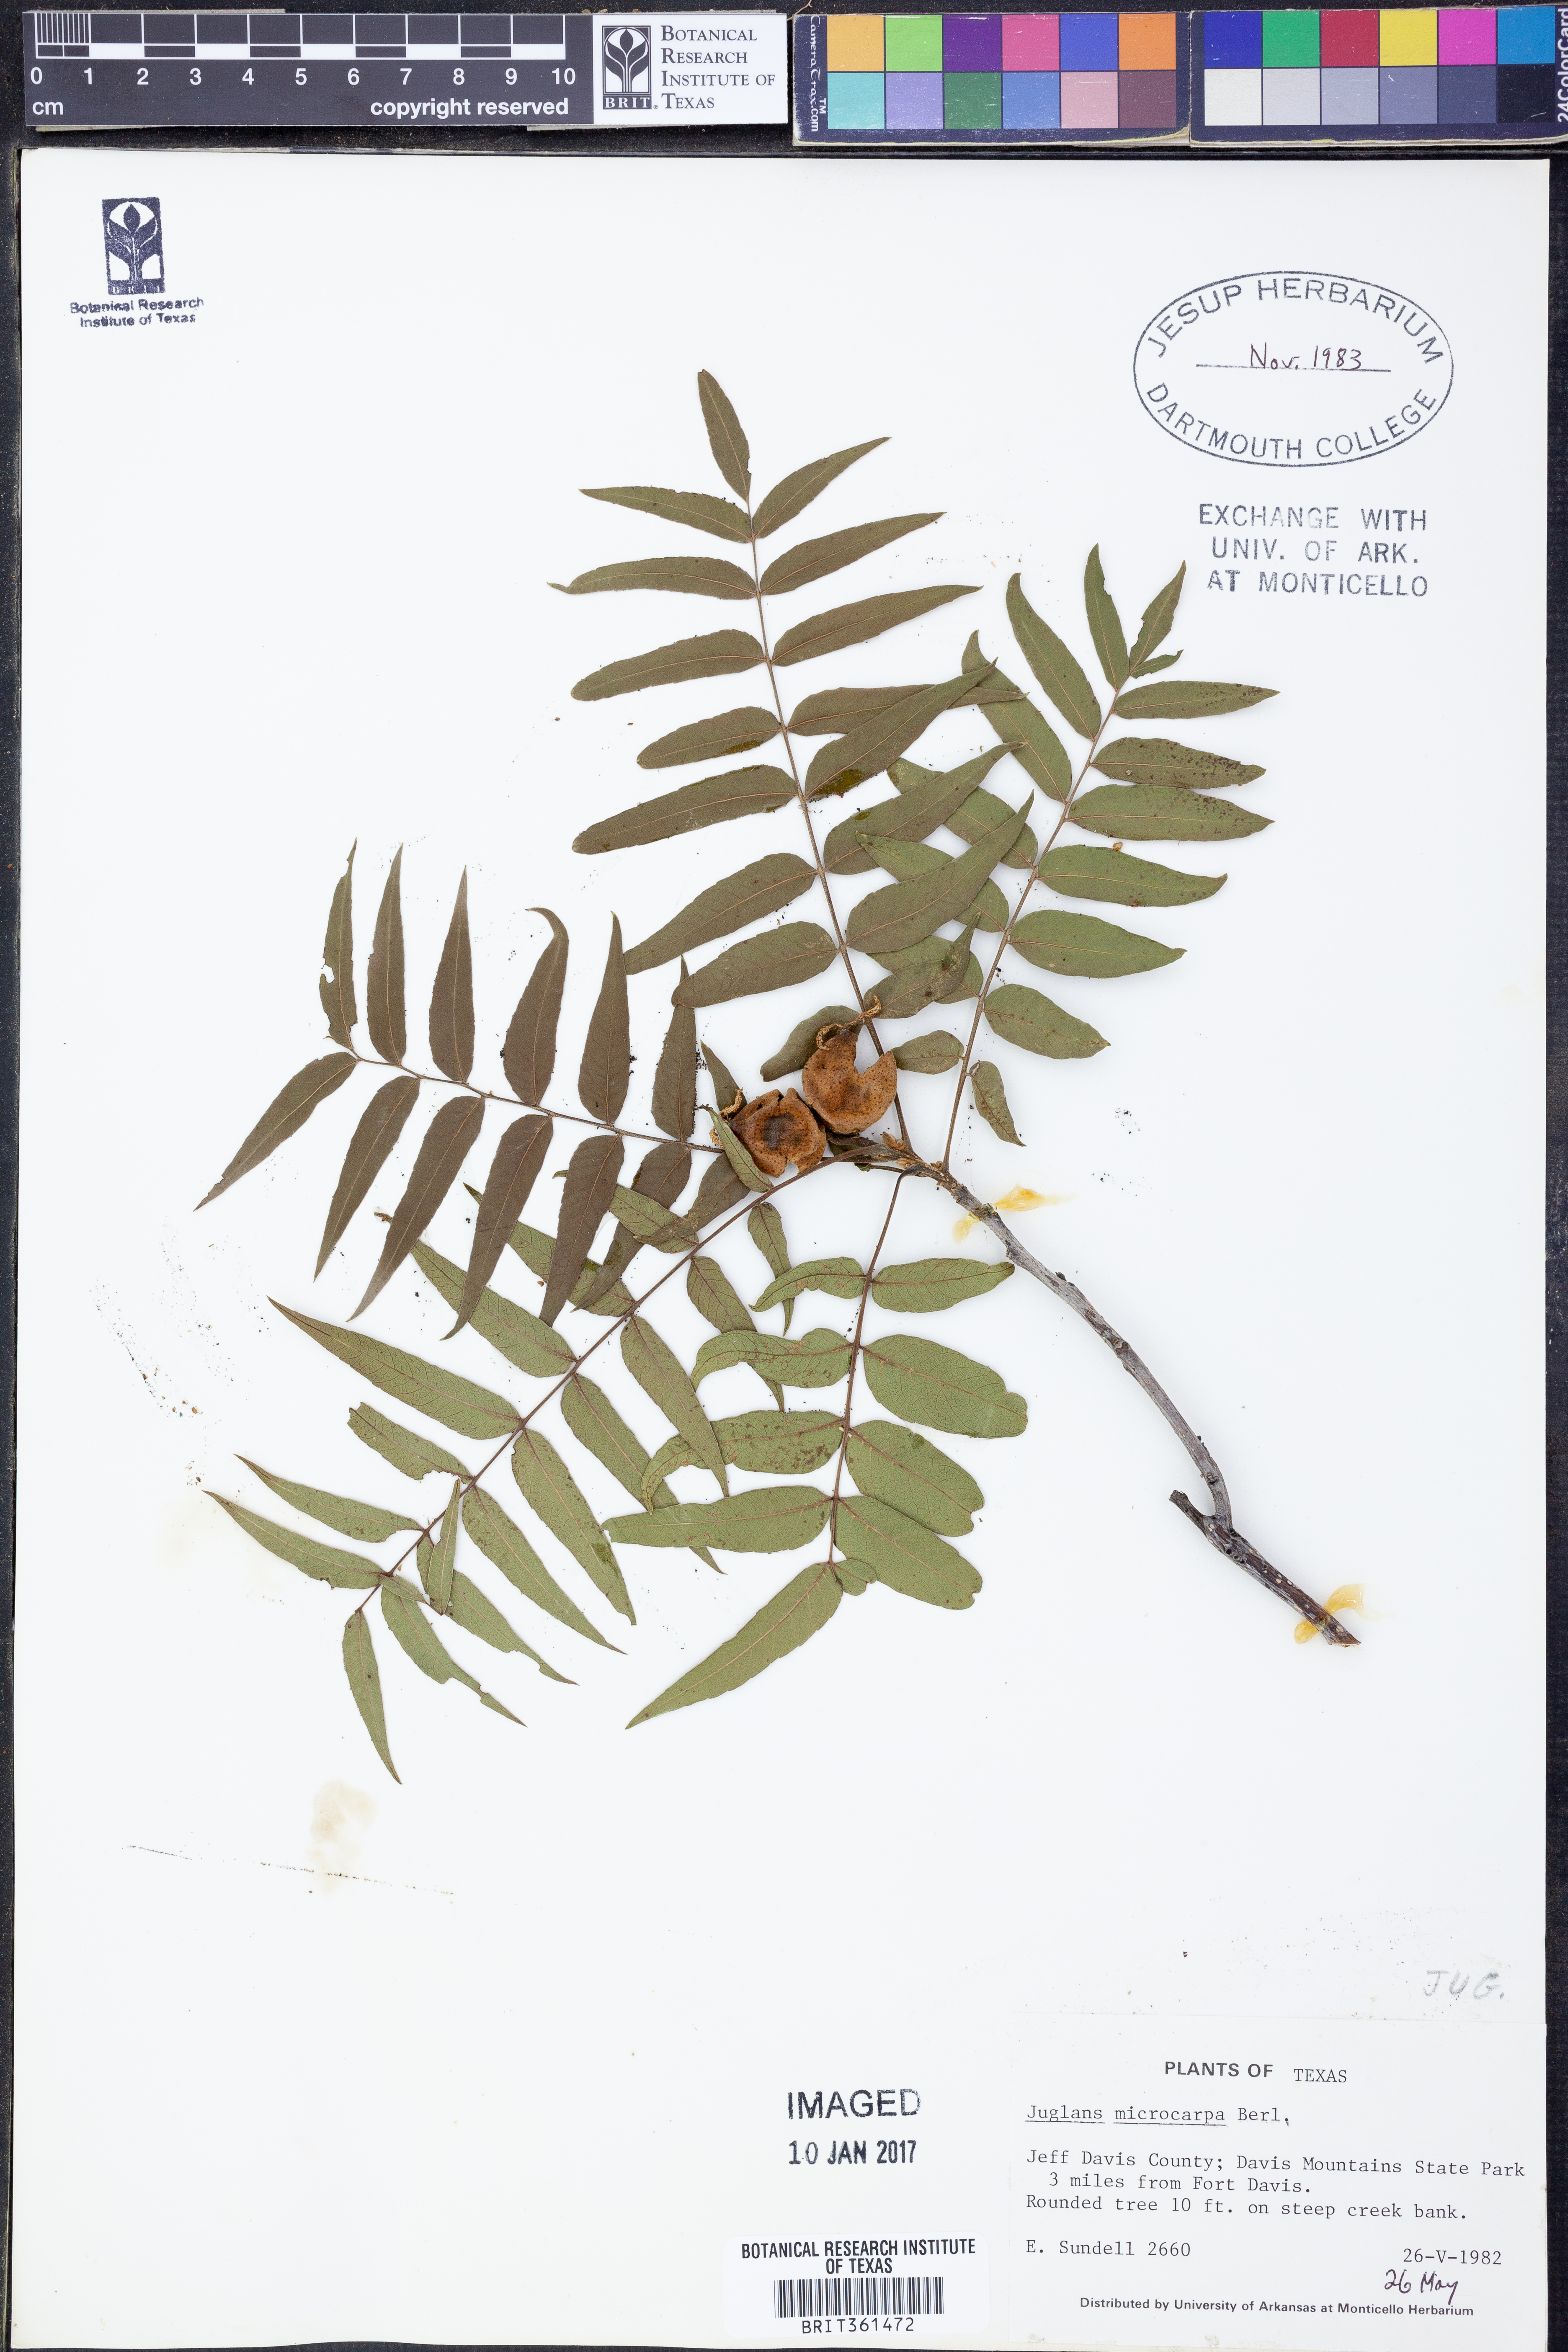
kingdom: Plantae
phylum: Tracheophyta
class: Magnoliopsida
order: Fagales
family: Juglandaceae
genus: Juglans
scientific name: Juglans microcarpa
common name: Texas walnut
